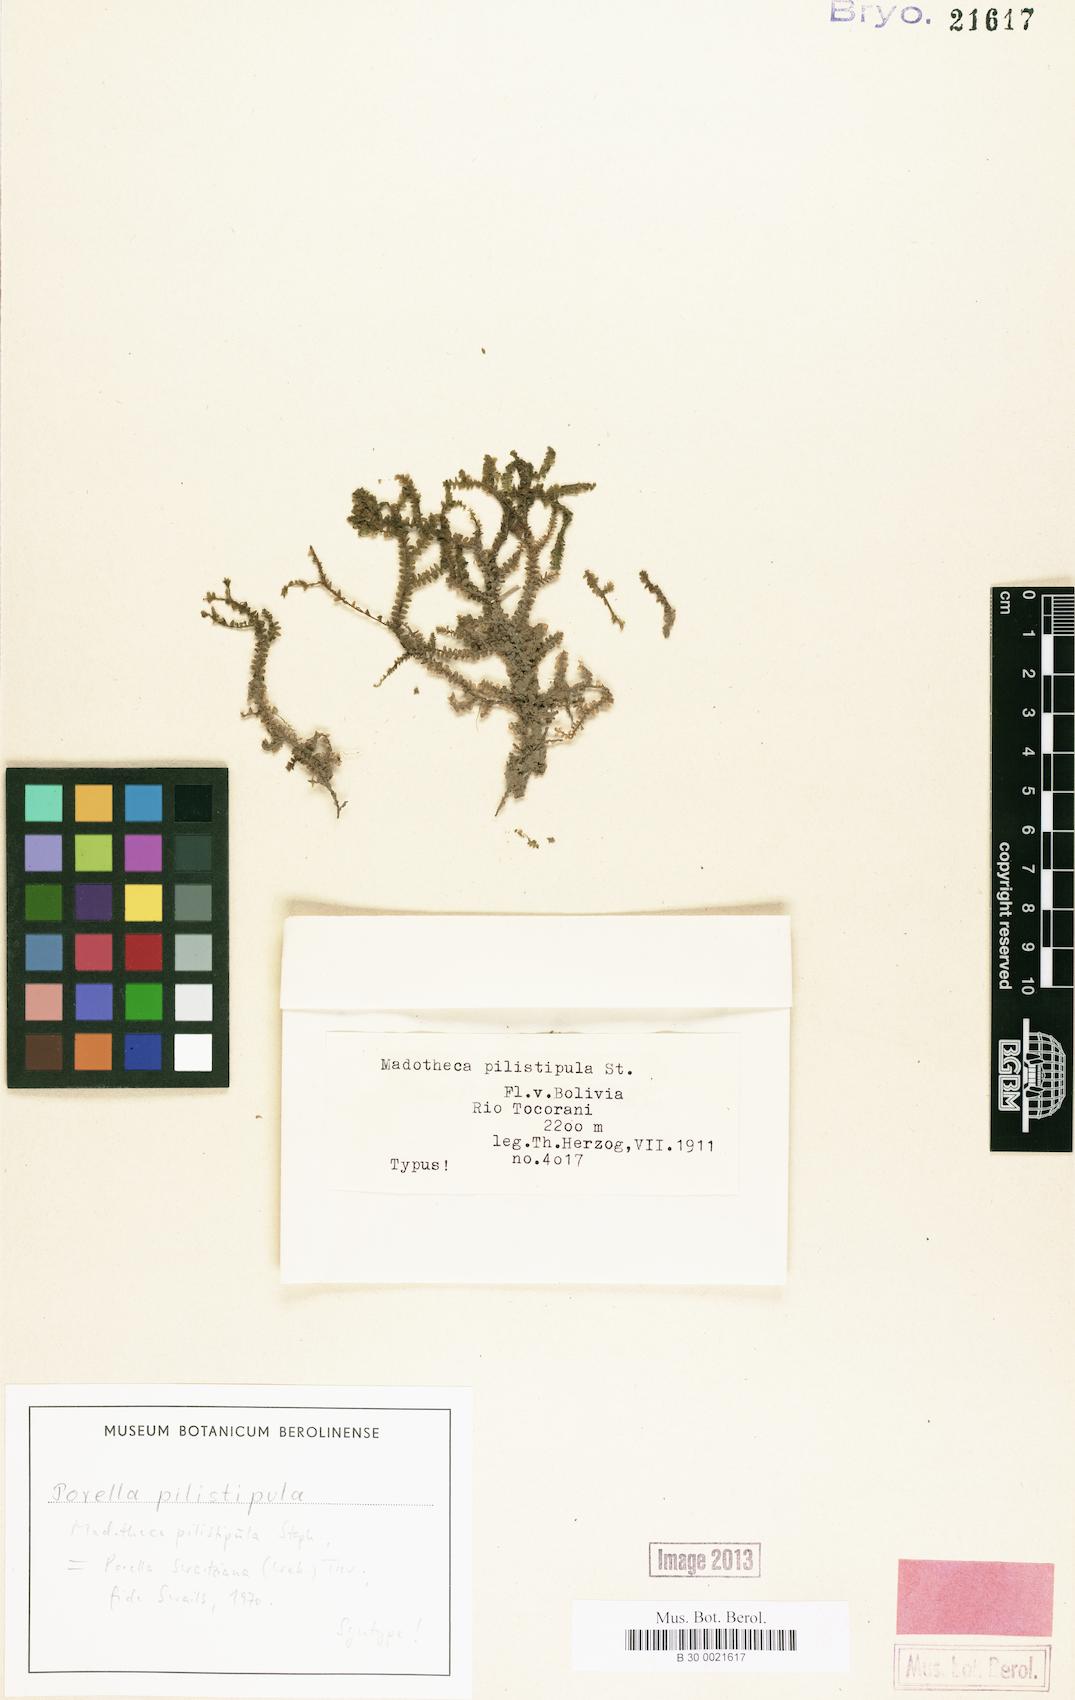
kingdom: Plantae
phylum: Marchantiophyta
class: Jungermanniopsida
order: Porellales
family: Porellaceae
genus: Porella
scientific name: Porella swartziana
